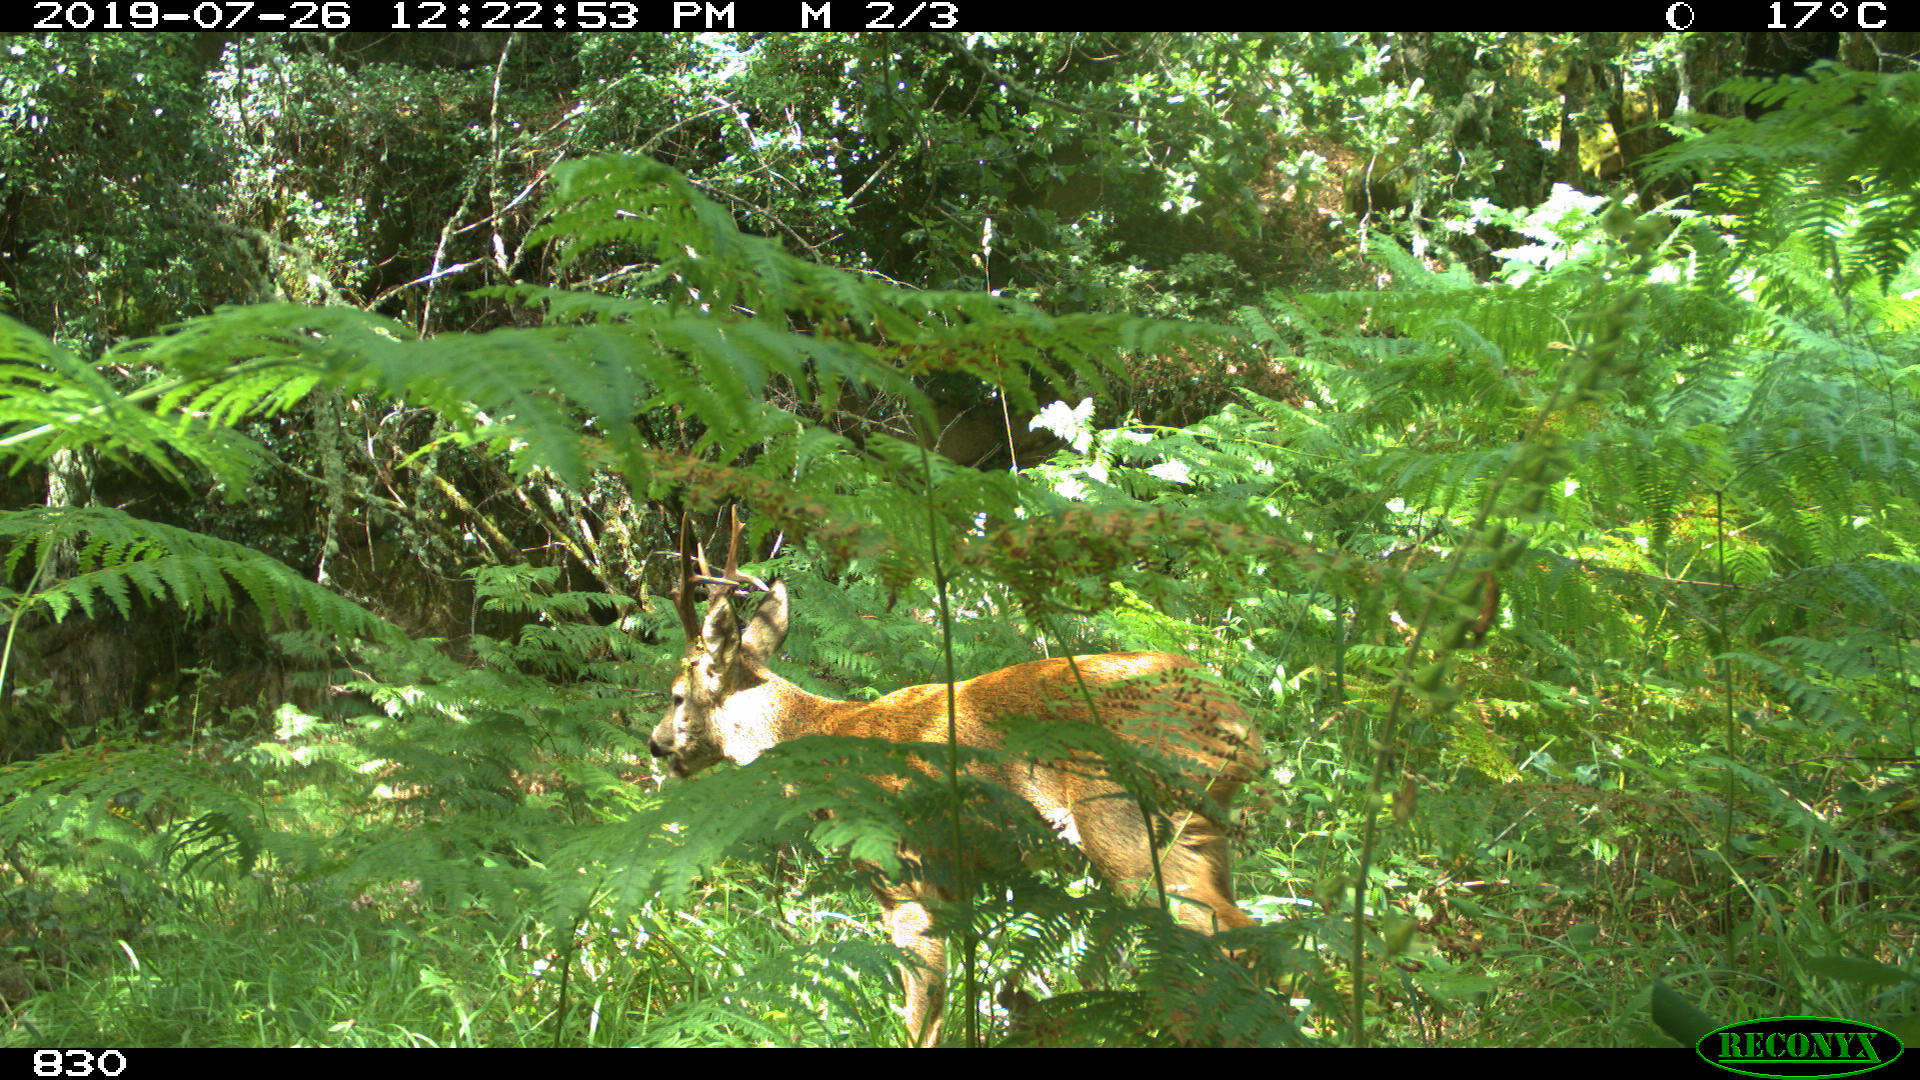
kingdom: Animalia
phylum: Chordata
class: Mammalia
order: Artiodactyla
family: Cervidae
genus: Capreolus
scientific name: Capreolus capreolus
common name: Western roe deer
